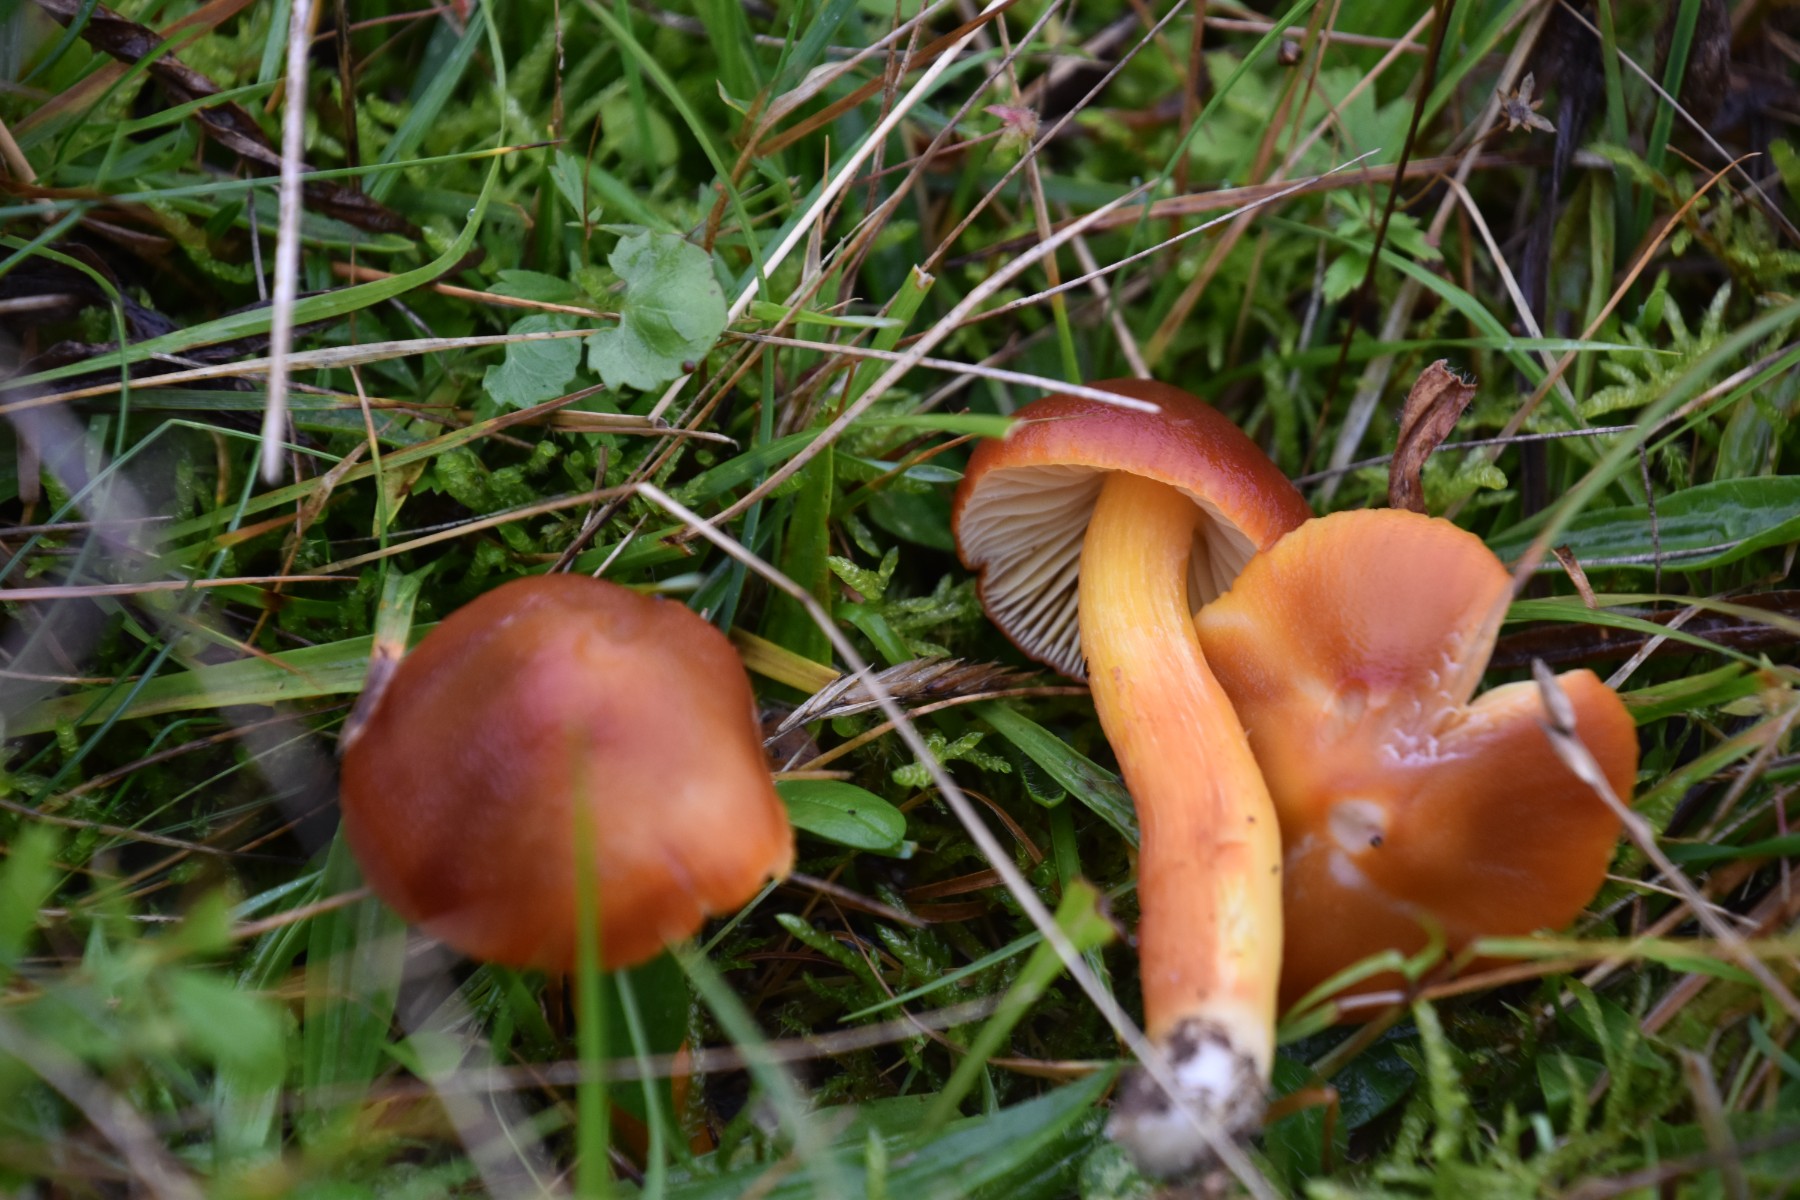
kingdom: Fungi
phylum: Basidiomycota
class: Agaricomycetes
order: Agaricales
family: Hygrophoraceae
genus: Hygrocybe
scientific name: Hygrocybe punicea
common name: skarlagen-vokshat
